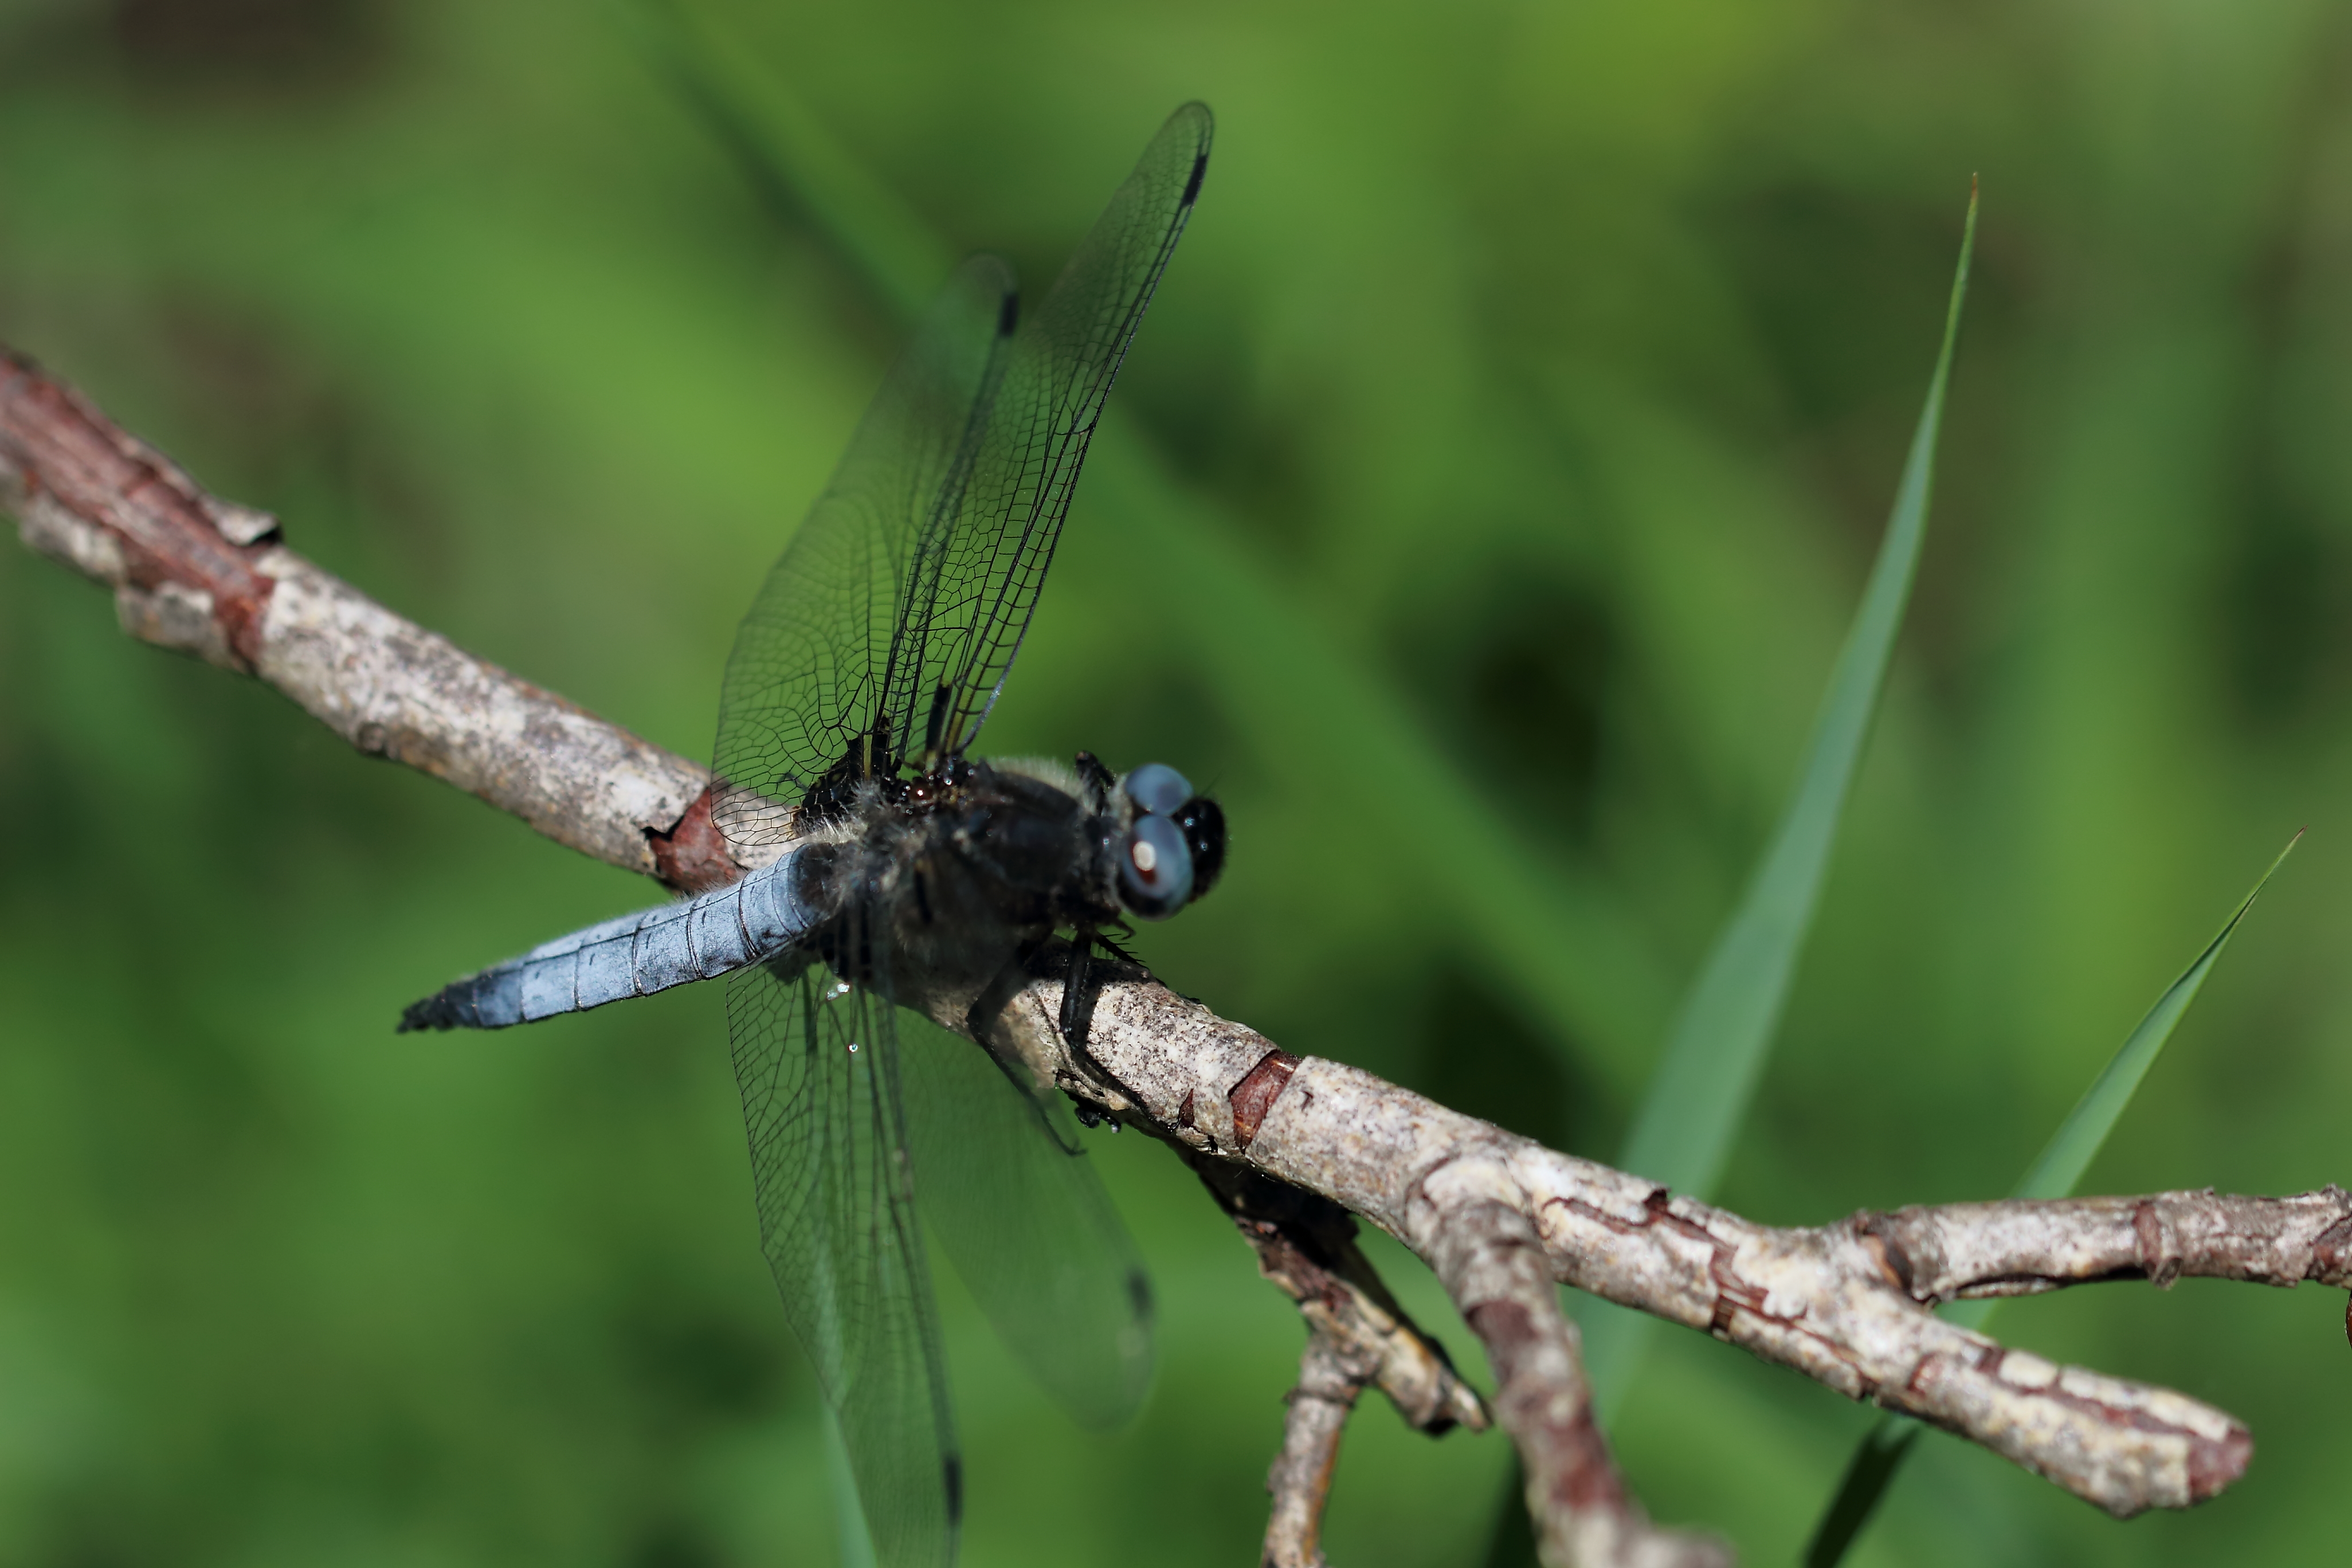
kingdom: Animalia
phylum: Arthropoda
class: Insecta
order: Odonata
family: Libellulidae
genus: Libellula
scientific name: Libellula fulva
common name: Blue chaser
